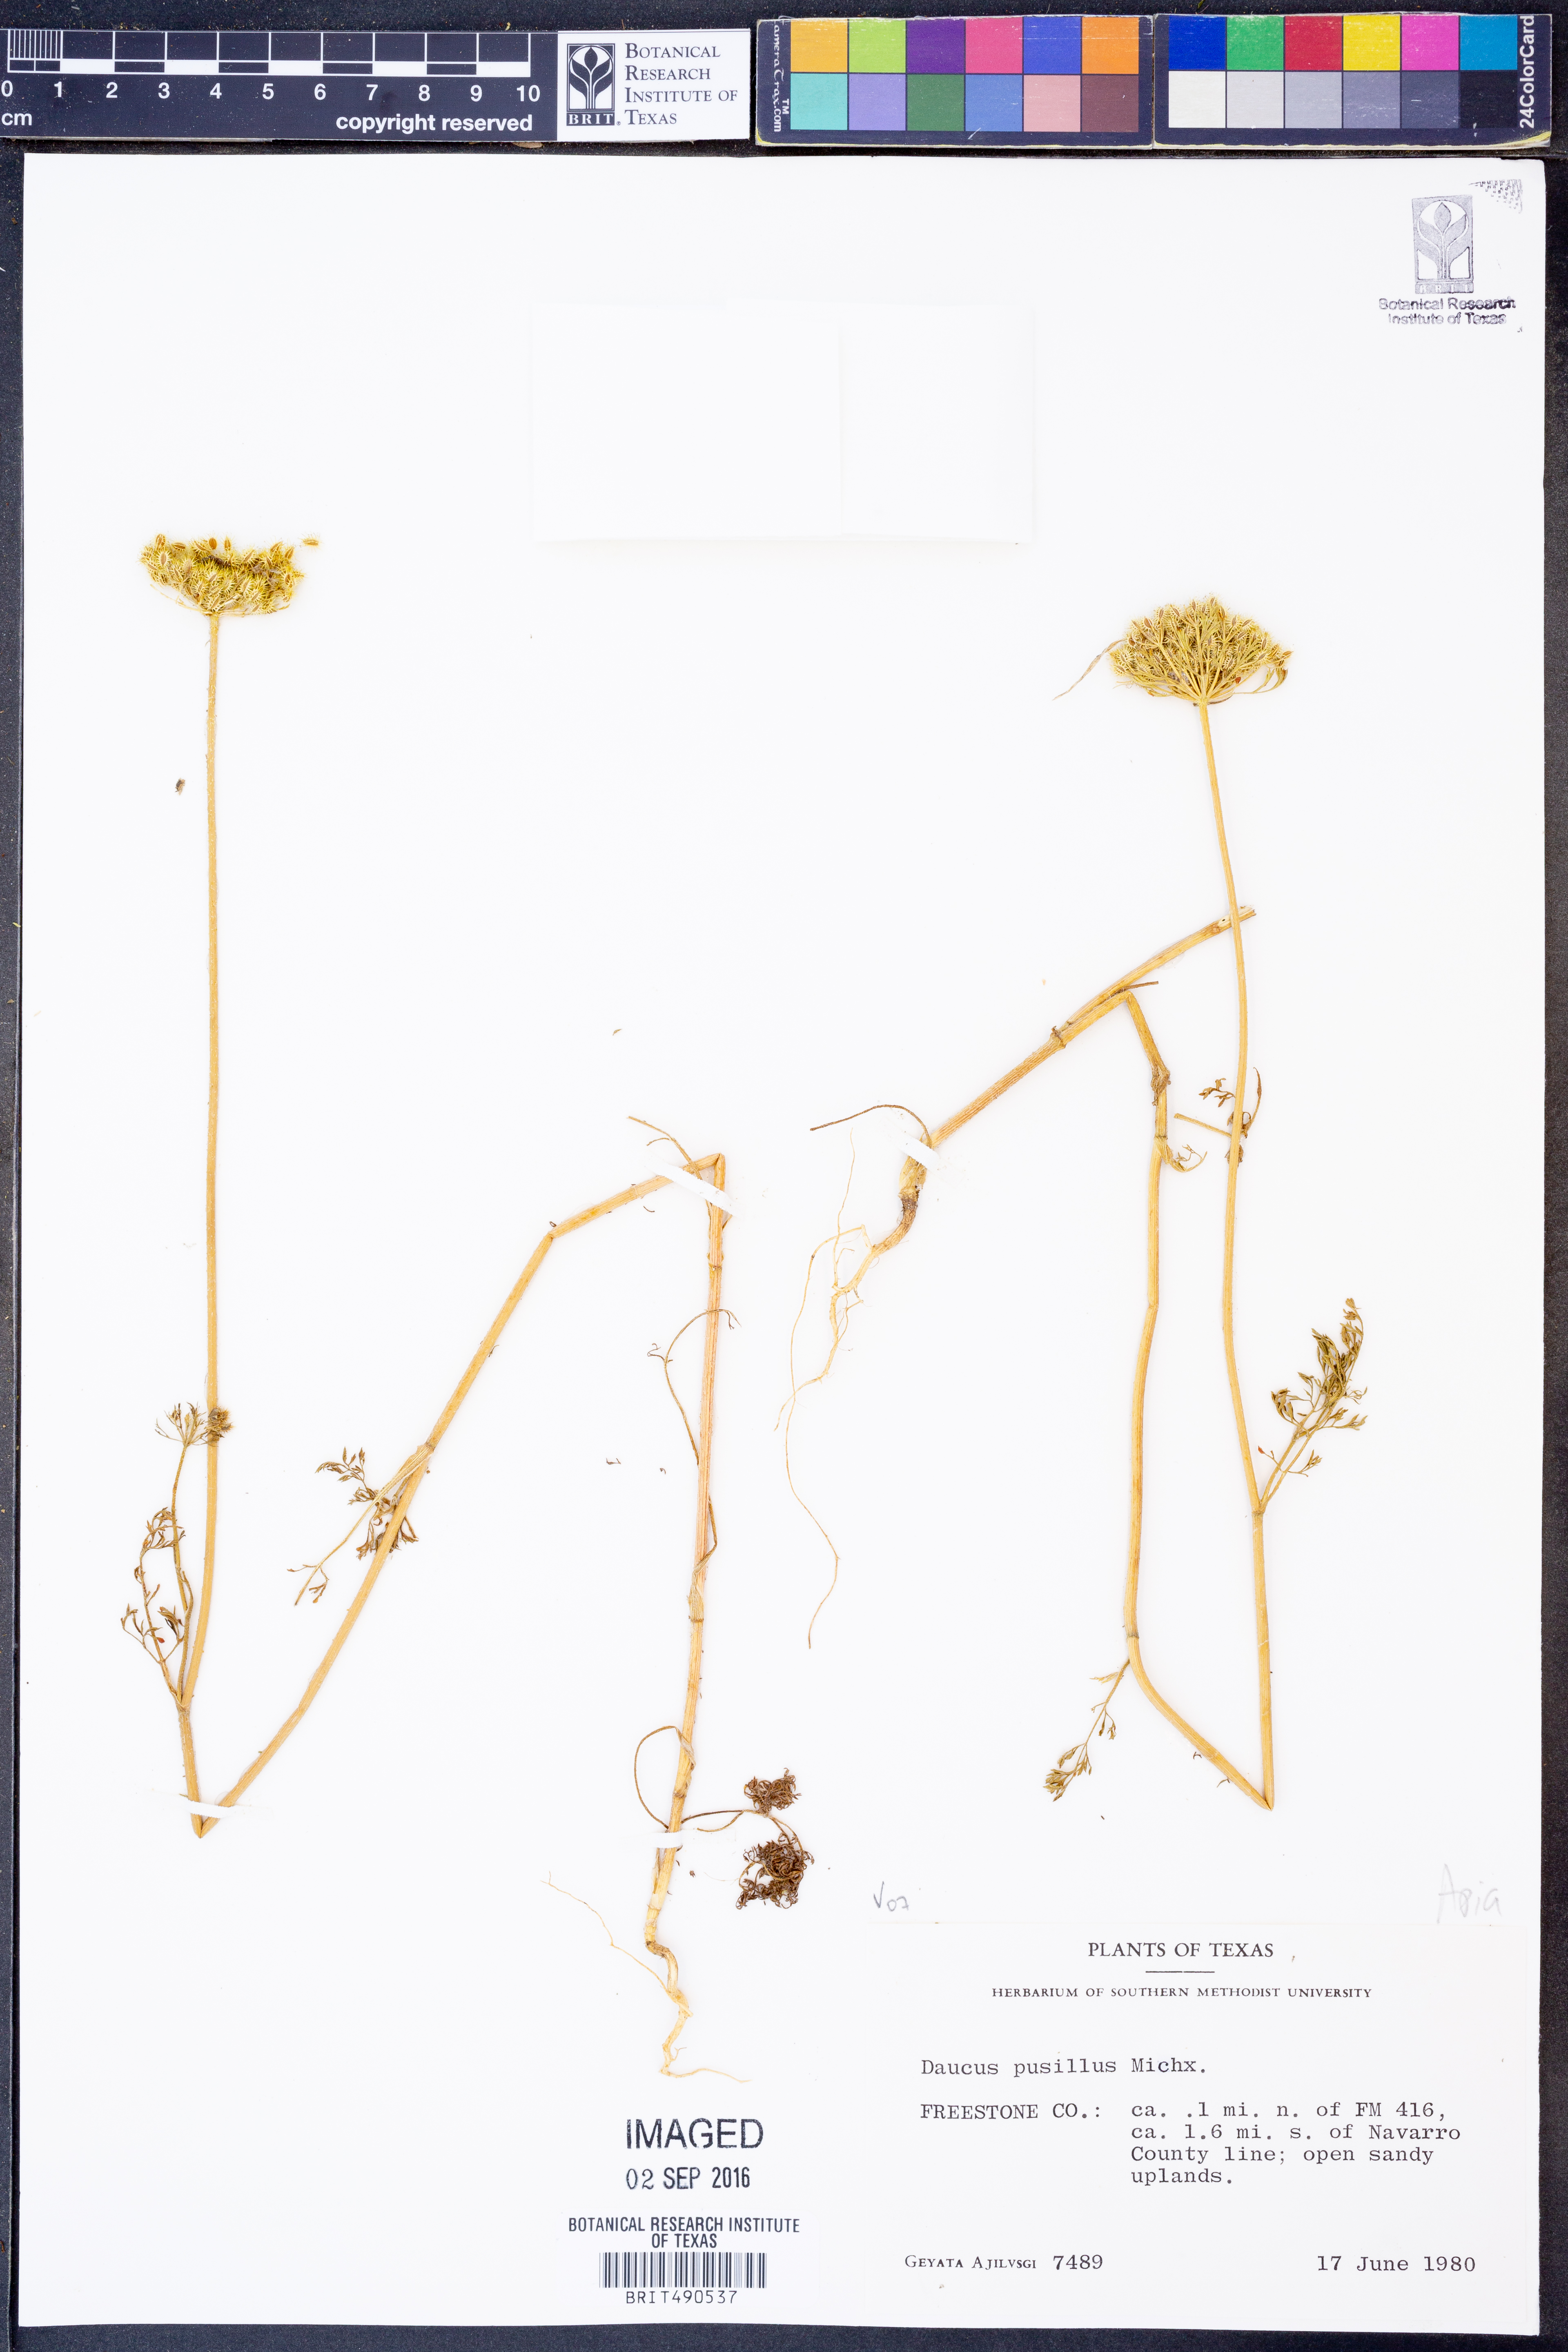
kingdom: Plantae
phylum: Tracheophyta
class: Magnoliopsida
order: Apiales
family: Apiaceae
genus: Daucus
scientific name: Daucus pusillus
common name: Southwest wild carrot
